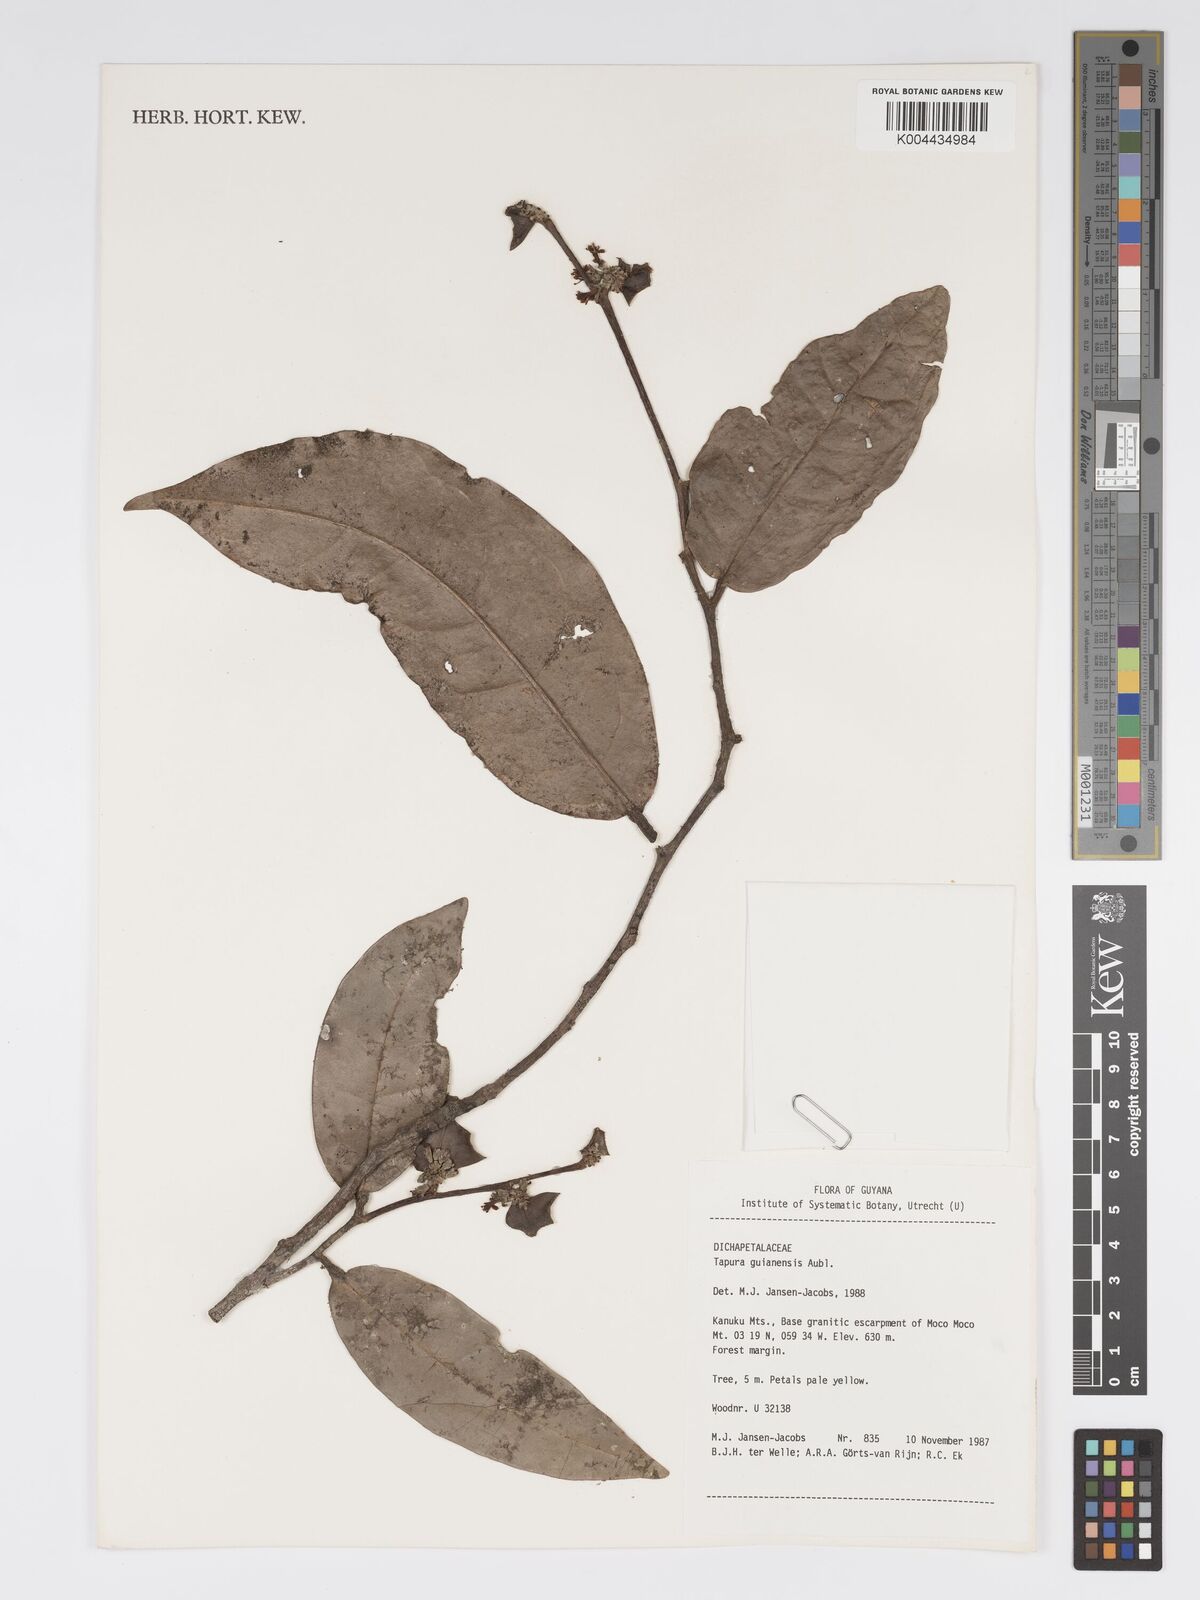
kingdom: Plantae
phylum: Tracheophyta
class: Magnoliopsida
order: Malpighiales
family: Dichapetalaceae
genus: Tapura
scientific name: Tapura guianensis
